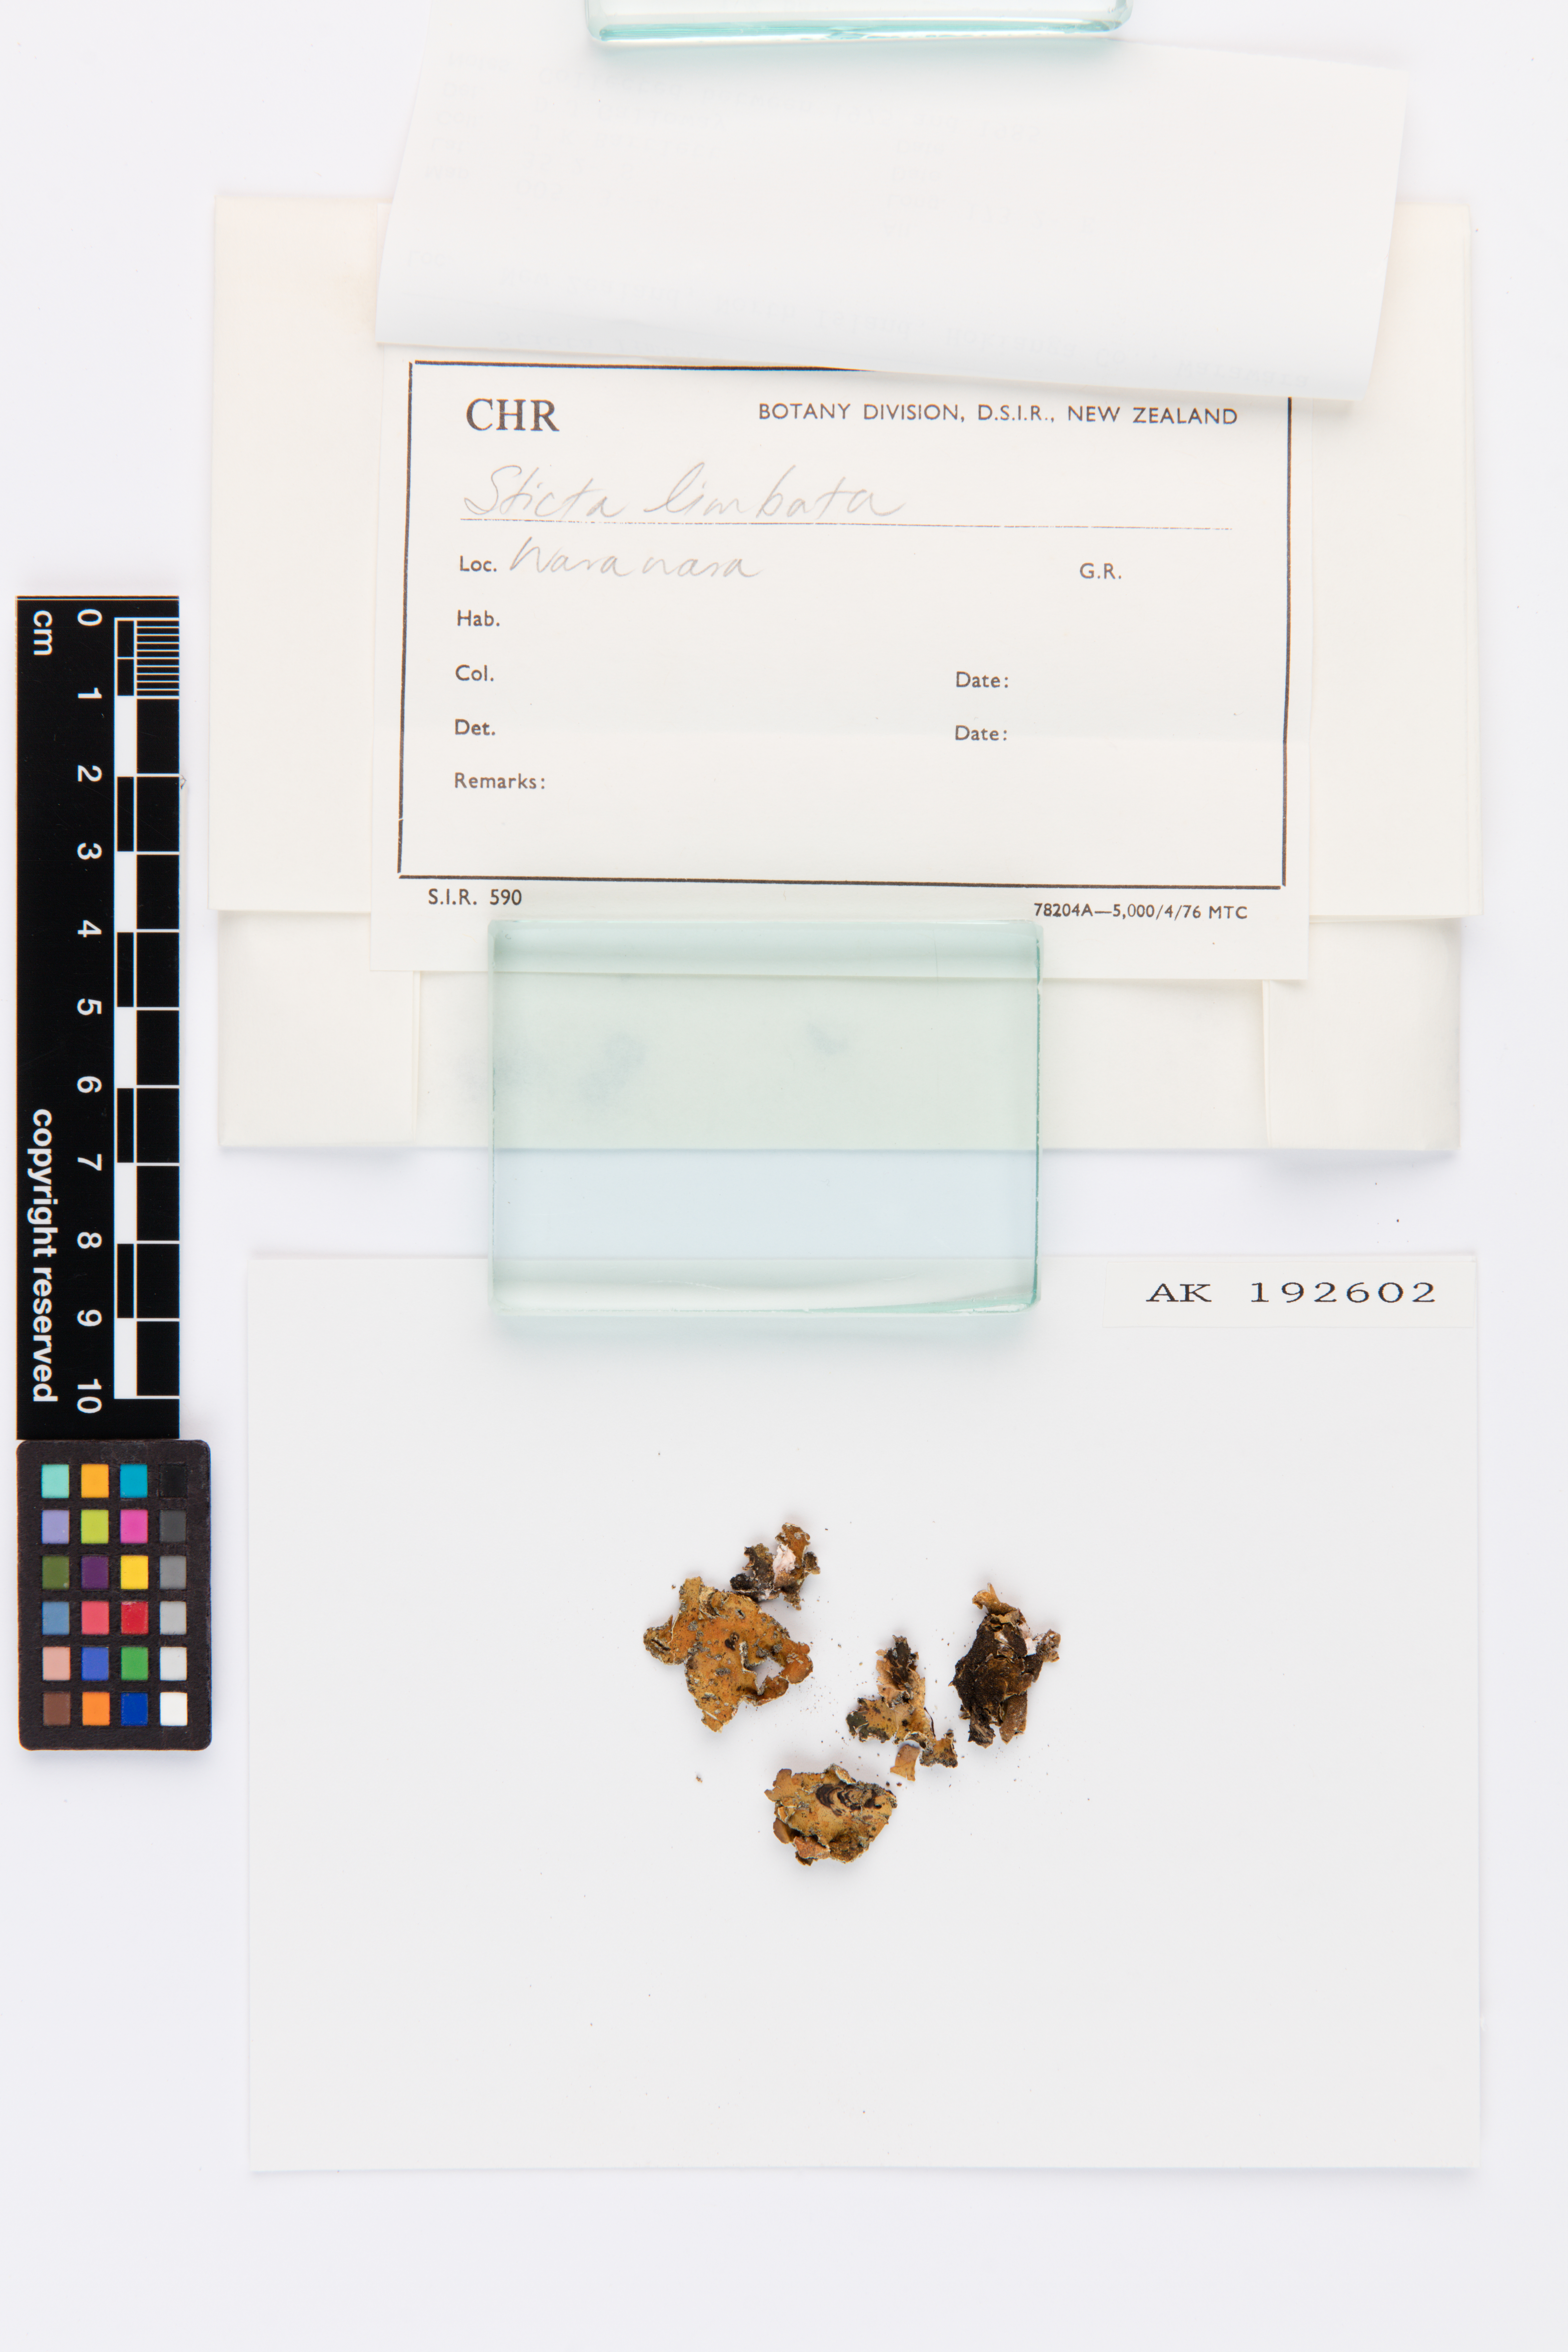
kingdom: Fungi
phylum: Ascomycota
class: Lecanoromycetes
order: Peltigerales
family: Lobariaceae
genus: Sticta
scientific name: Sticta limbata
